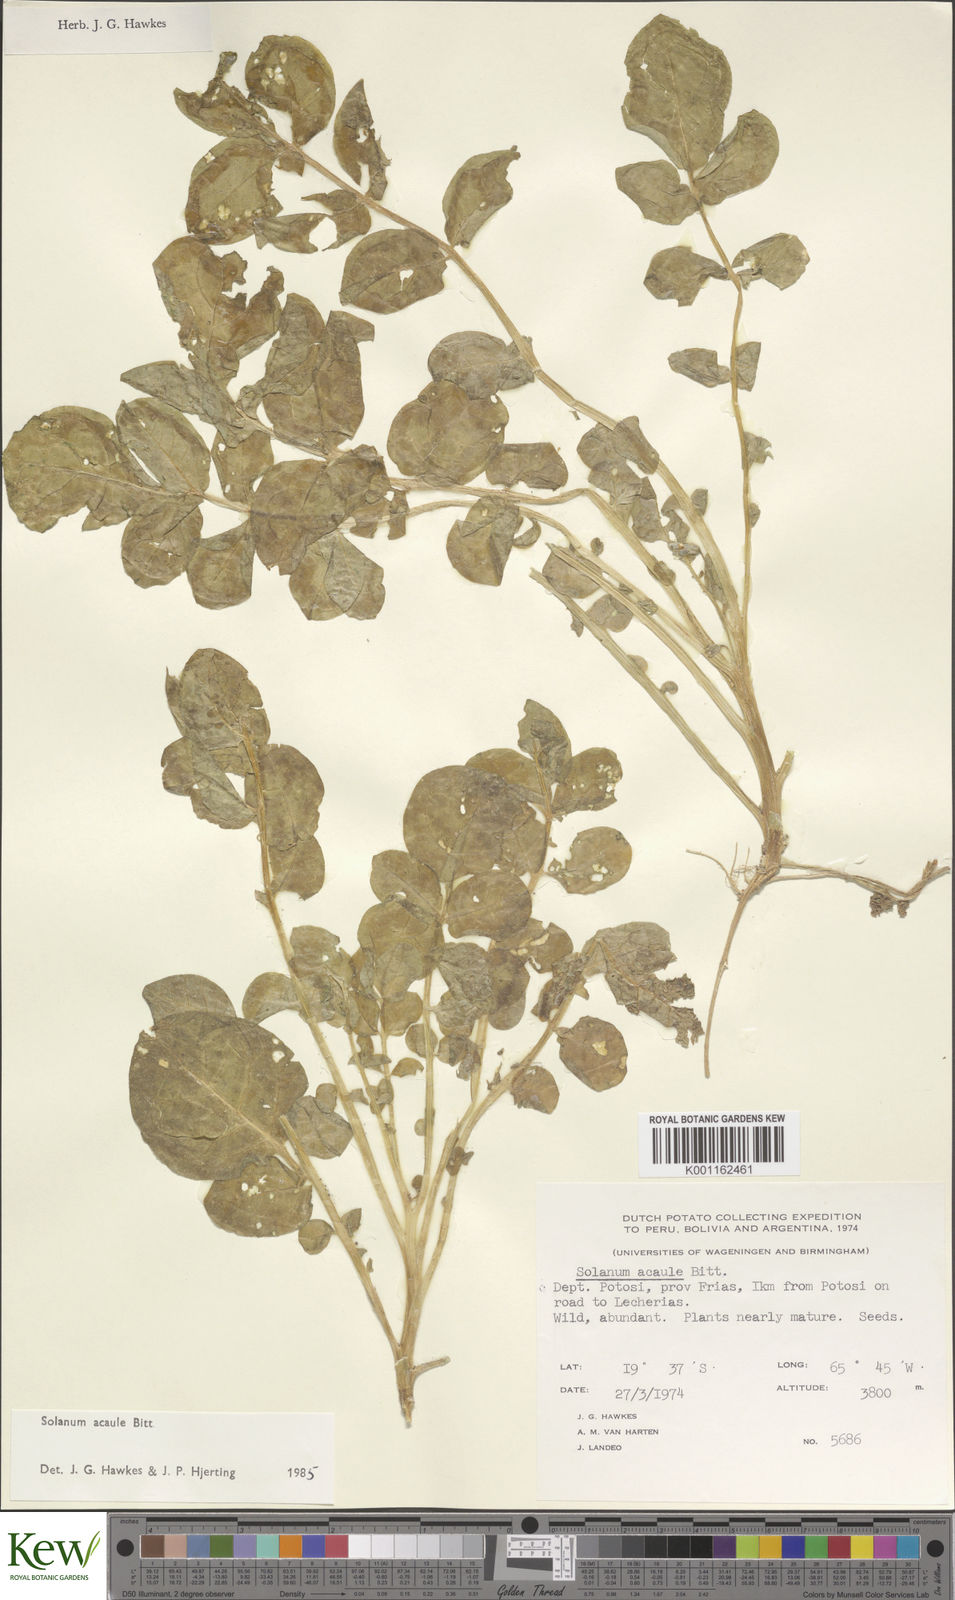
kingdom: Plantae
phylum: Tracheophyta
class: Magnoliopsida
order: Solanales
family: Solanaceae
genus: Solanum
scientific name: Solanum acaule
